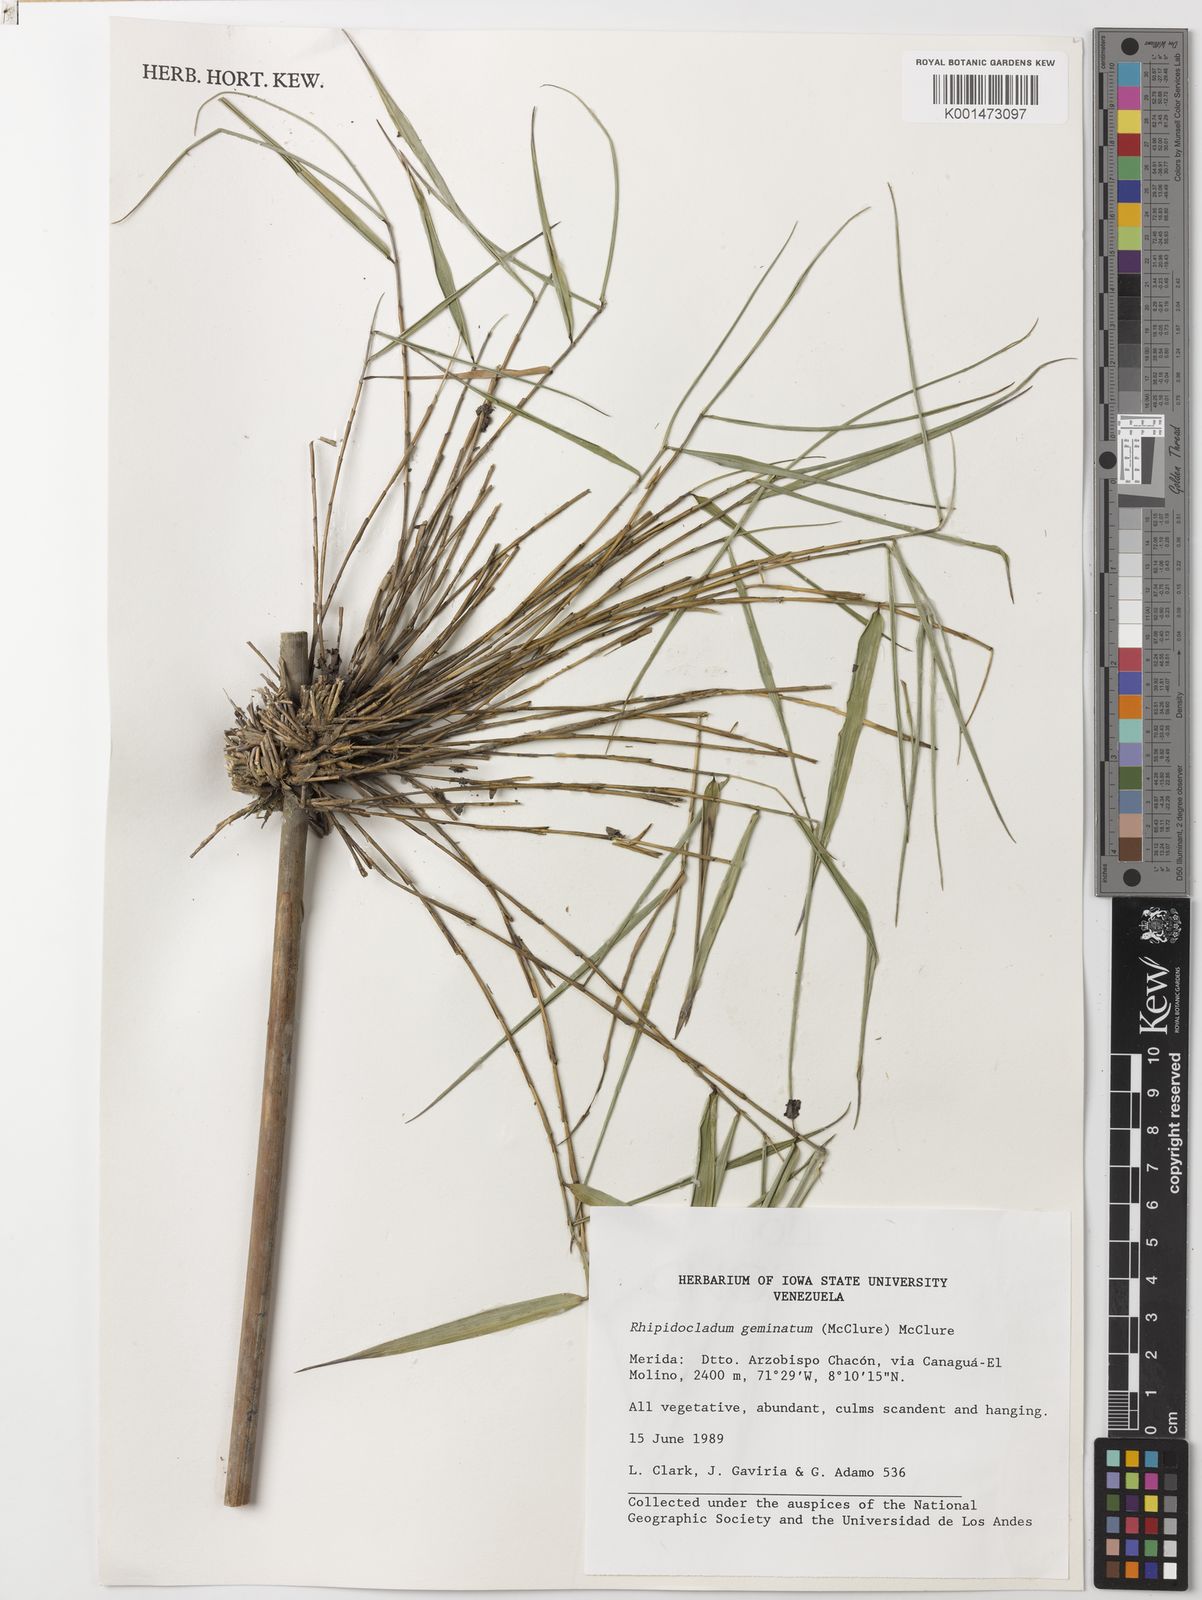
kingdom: Plantae
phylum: Tracheophyta
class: Liliopsida
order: Poales
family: Poaceae
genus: Didymogonyx
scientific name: Didymogonyx geminatum
